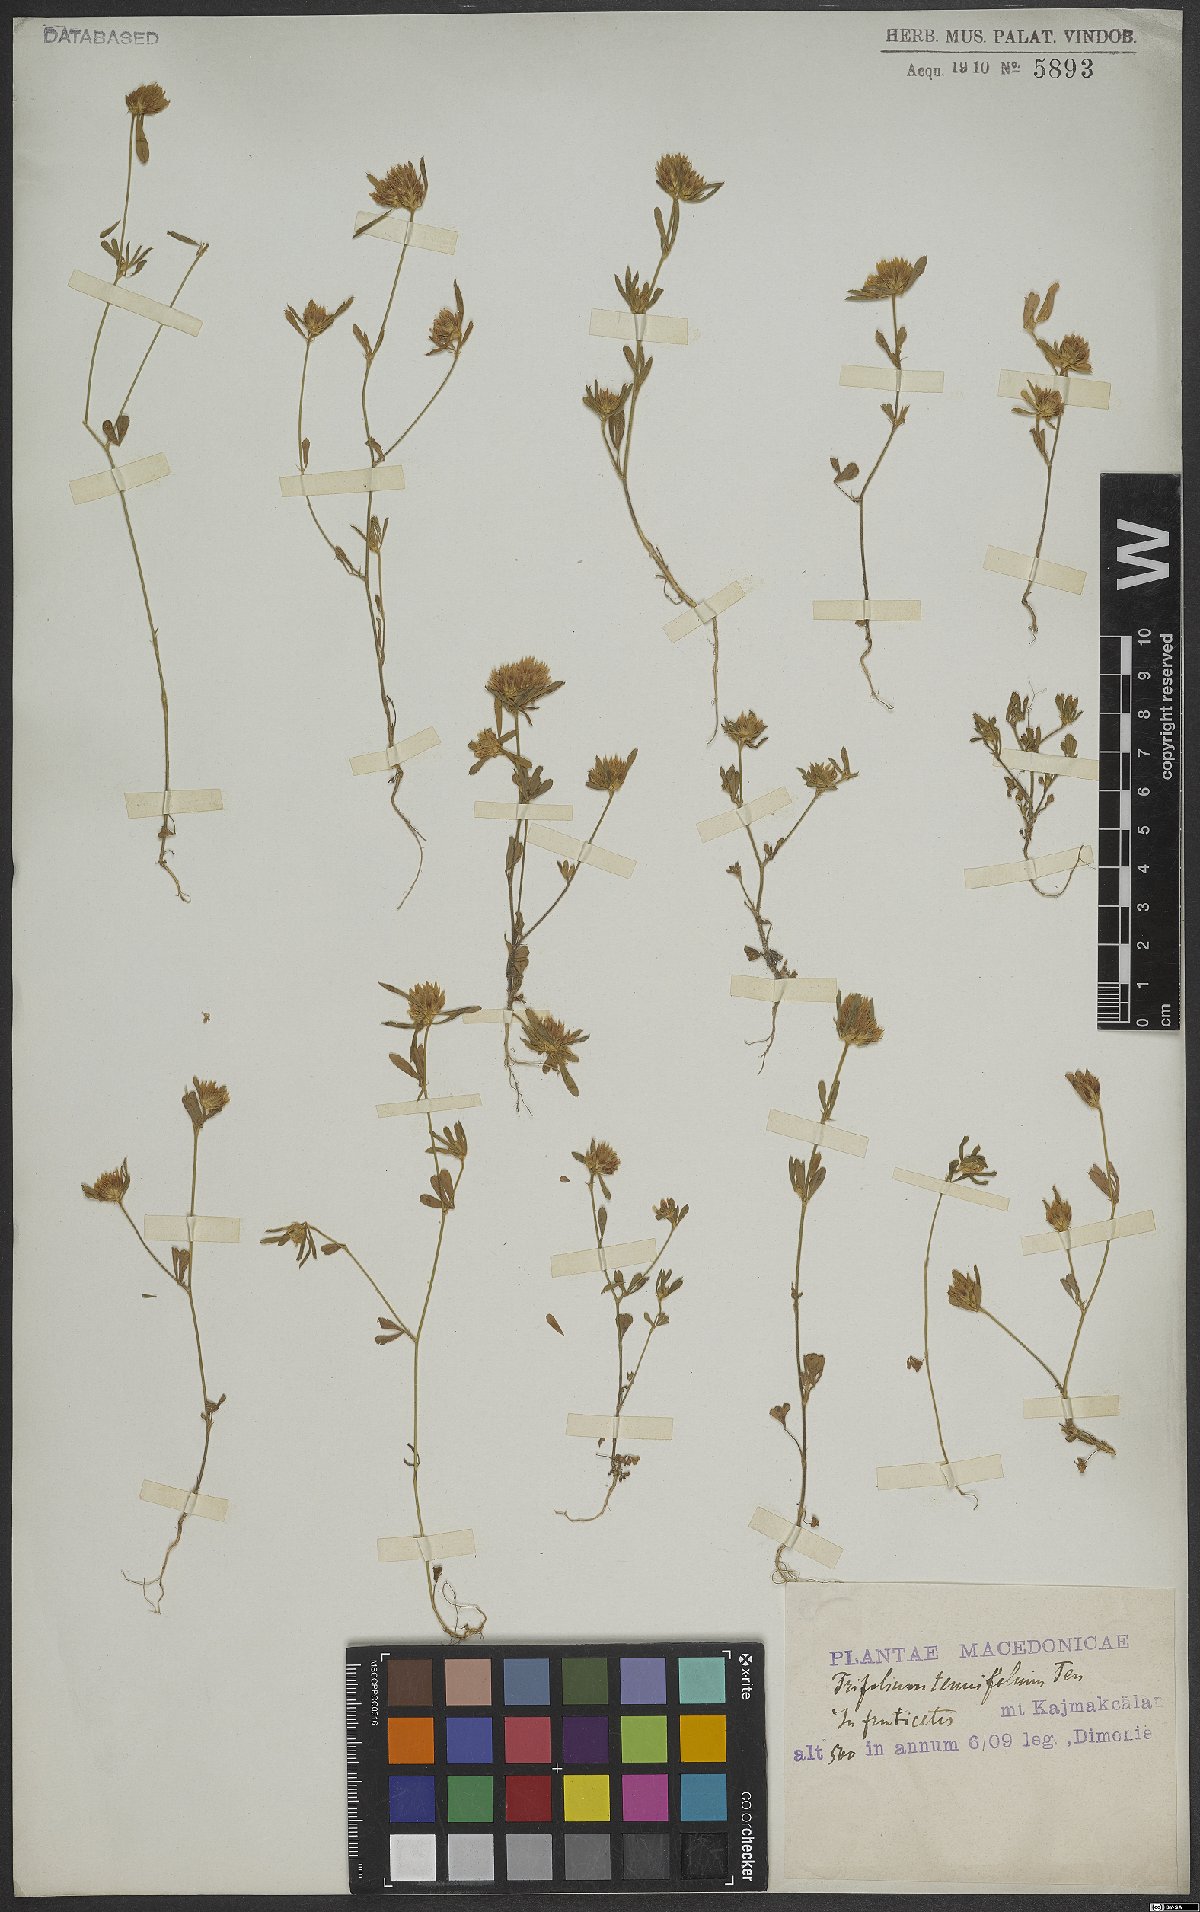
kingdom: Plantae
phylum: Tracheophyta
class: Magnoliopsida
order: Fabales
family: Fabaceae
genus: Trifolium
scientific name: Trifolium tenuifolium
